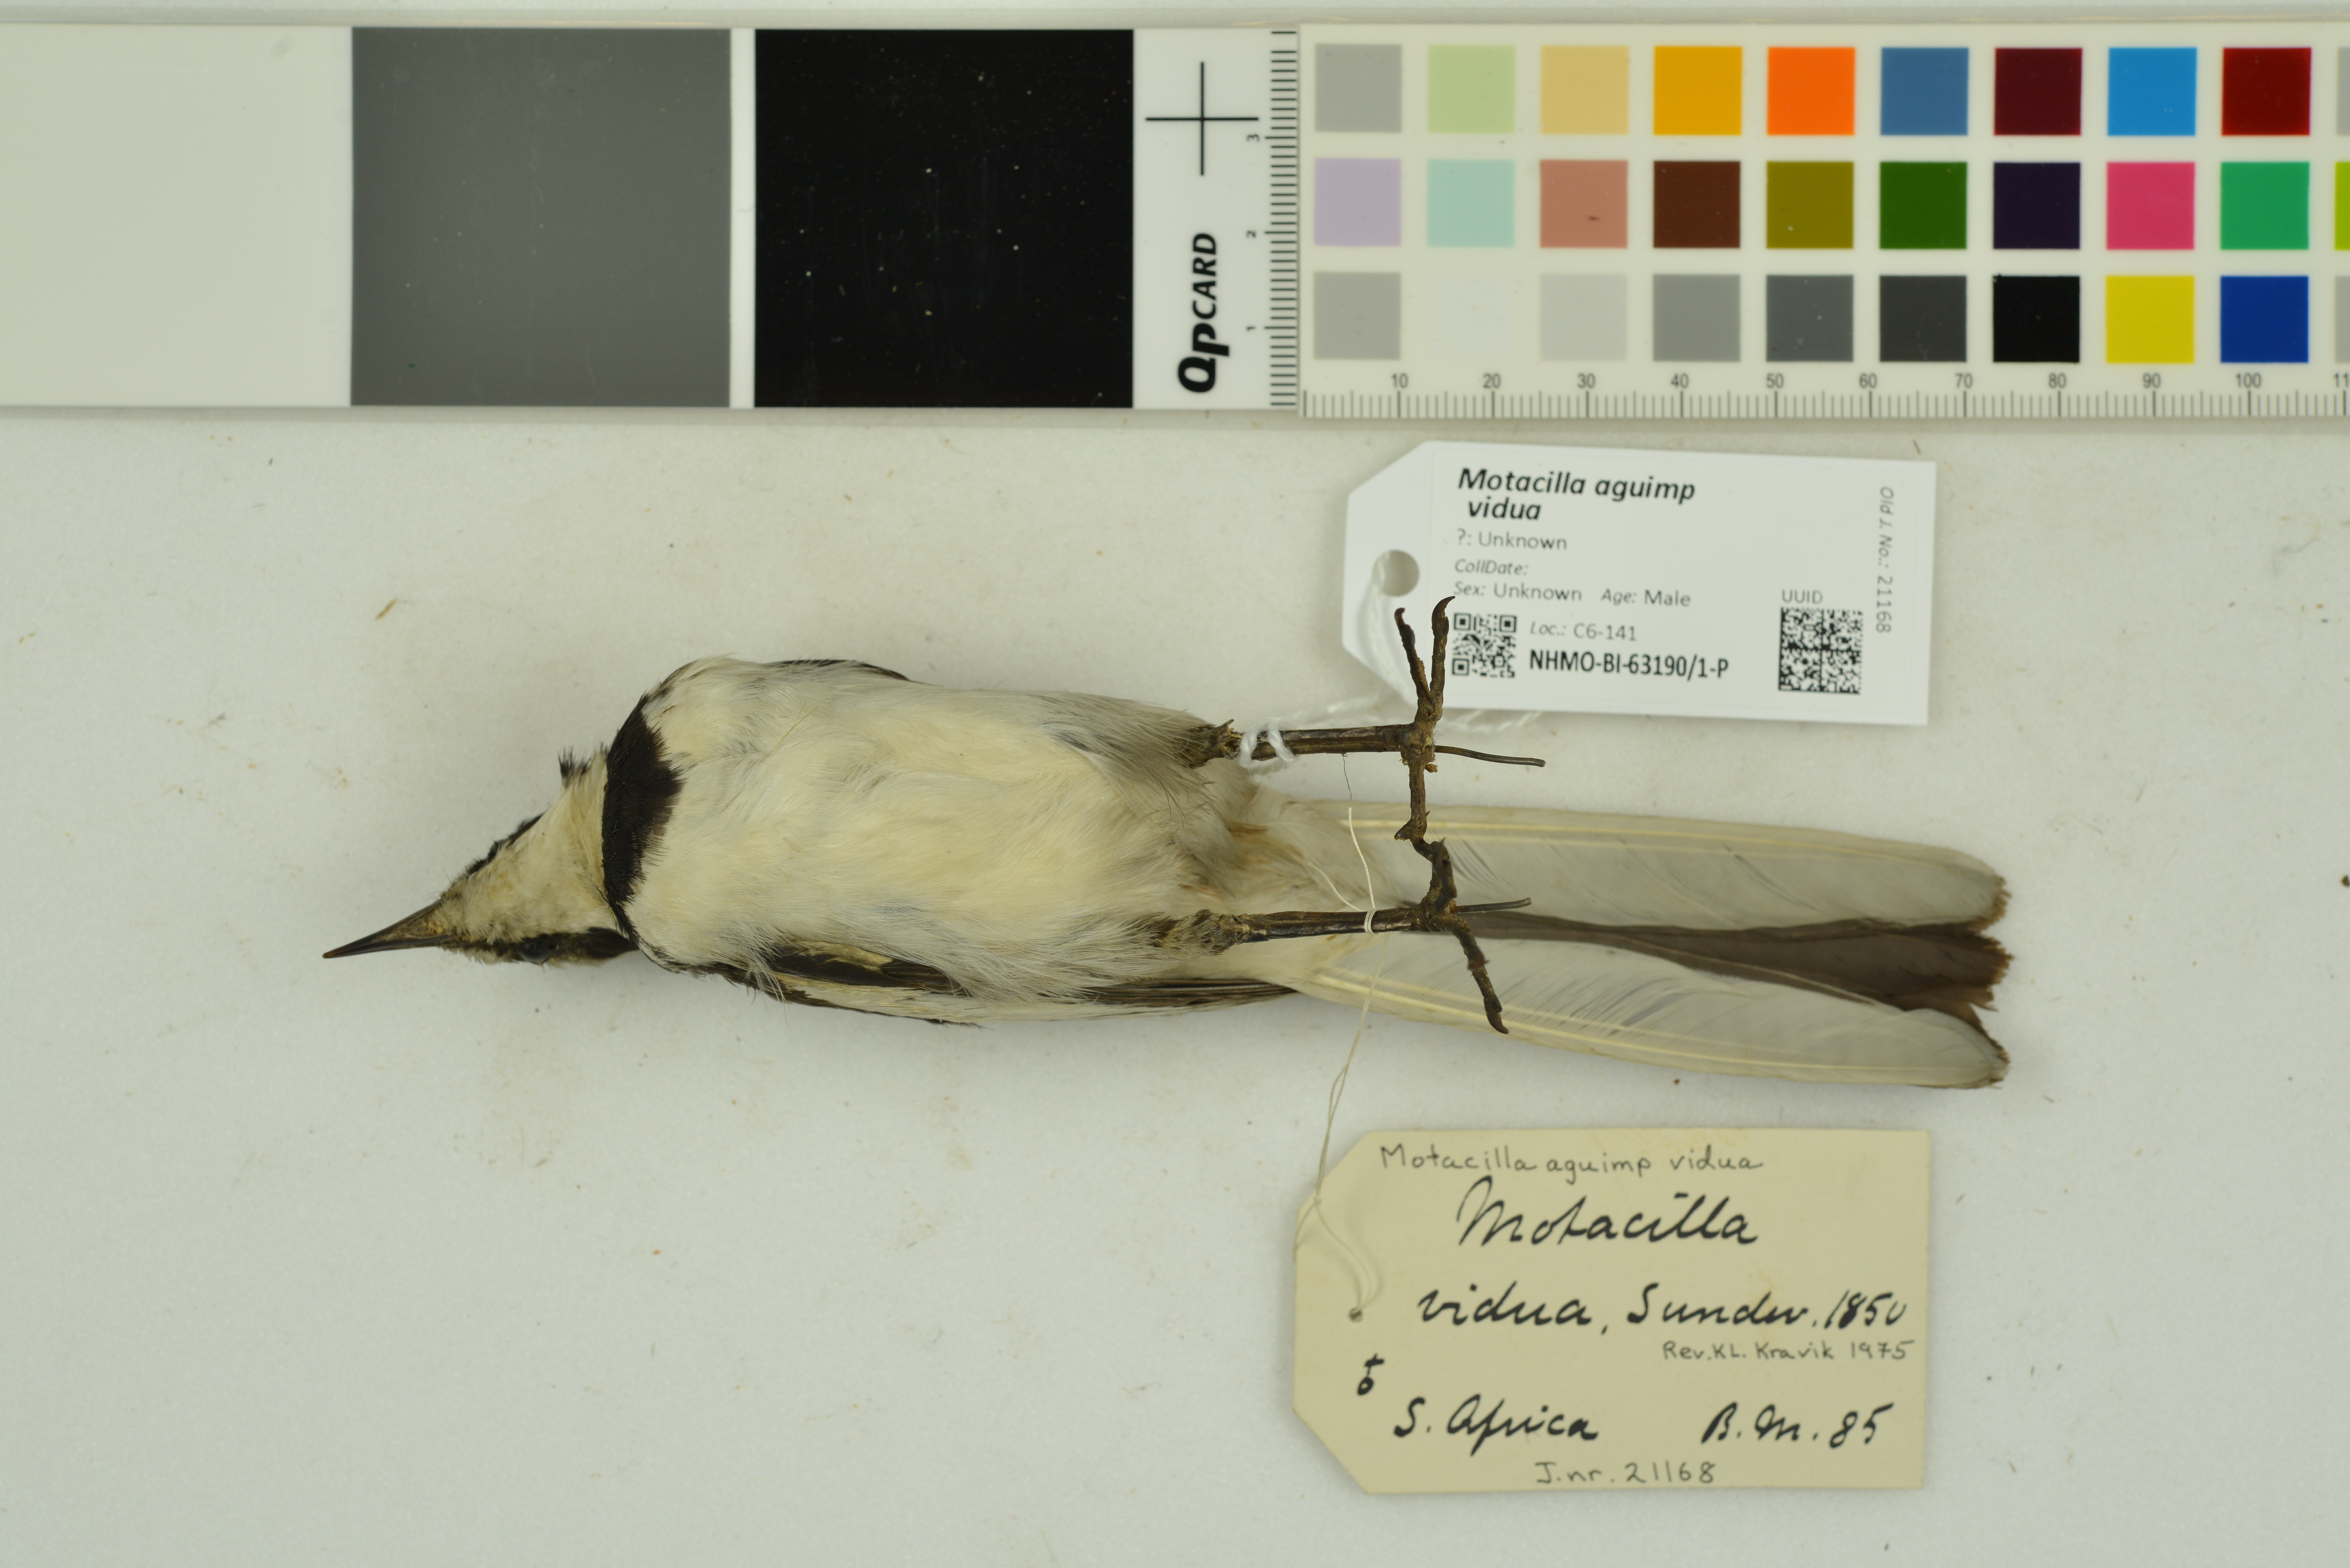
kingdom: Animalia
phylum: Chordata
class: Aves
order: Passeriformes
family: Motacillidae
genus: Motacilla
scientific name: Motacilla aguimp
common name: African pied wagtail
